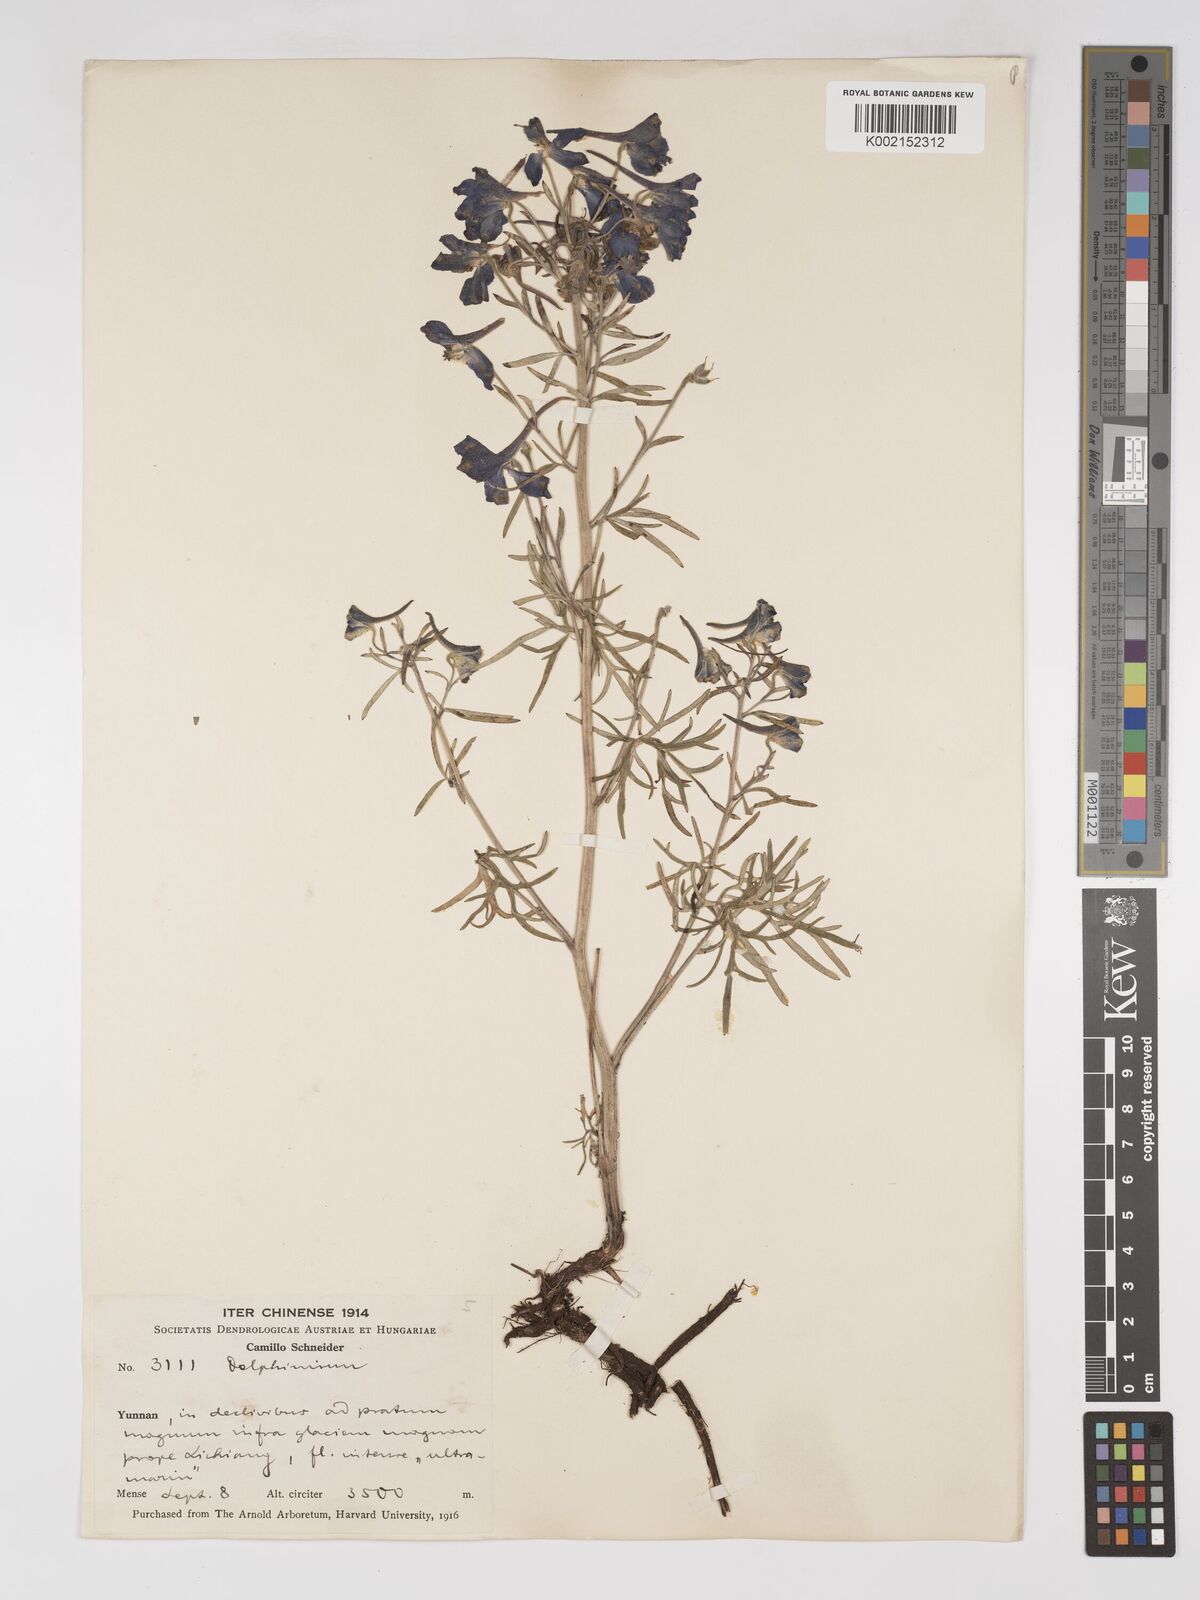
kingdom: Plantae
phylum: Tracheophyta
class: Magnoliopsida
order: Ranunculales
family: Ranunculaceae
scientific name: Ranunculaceae
